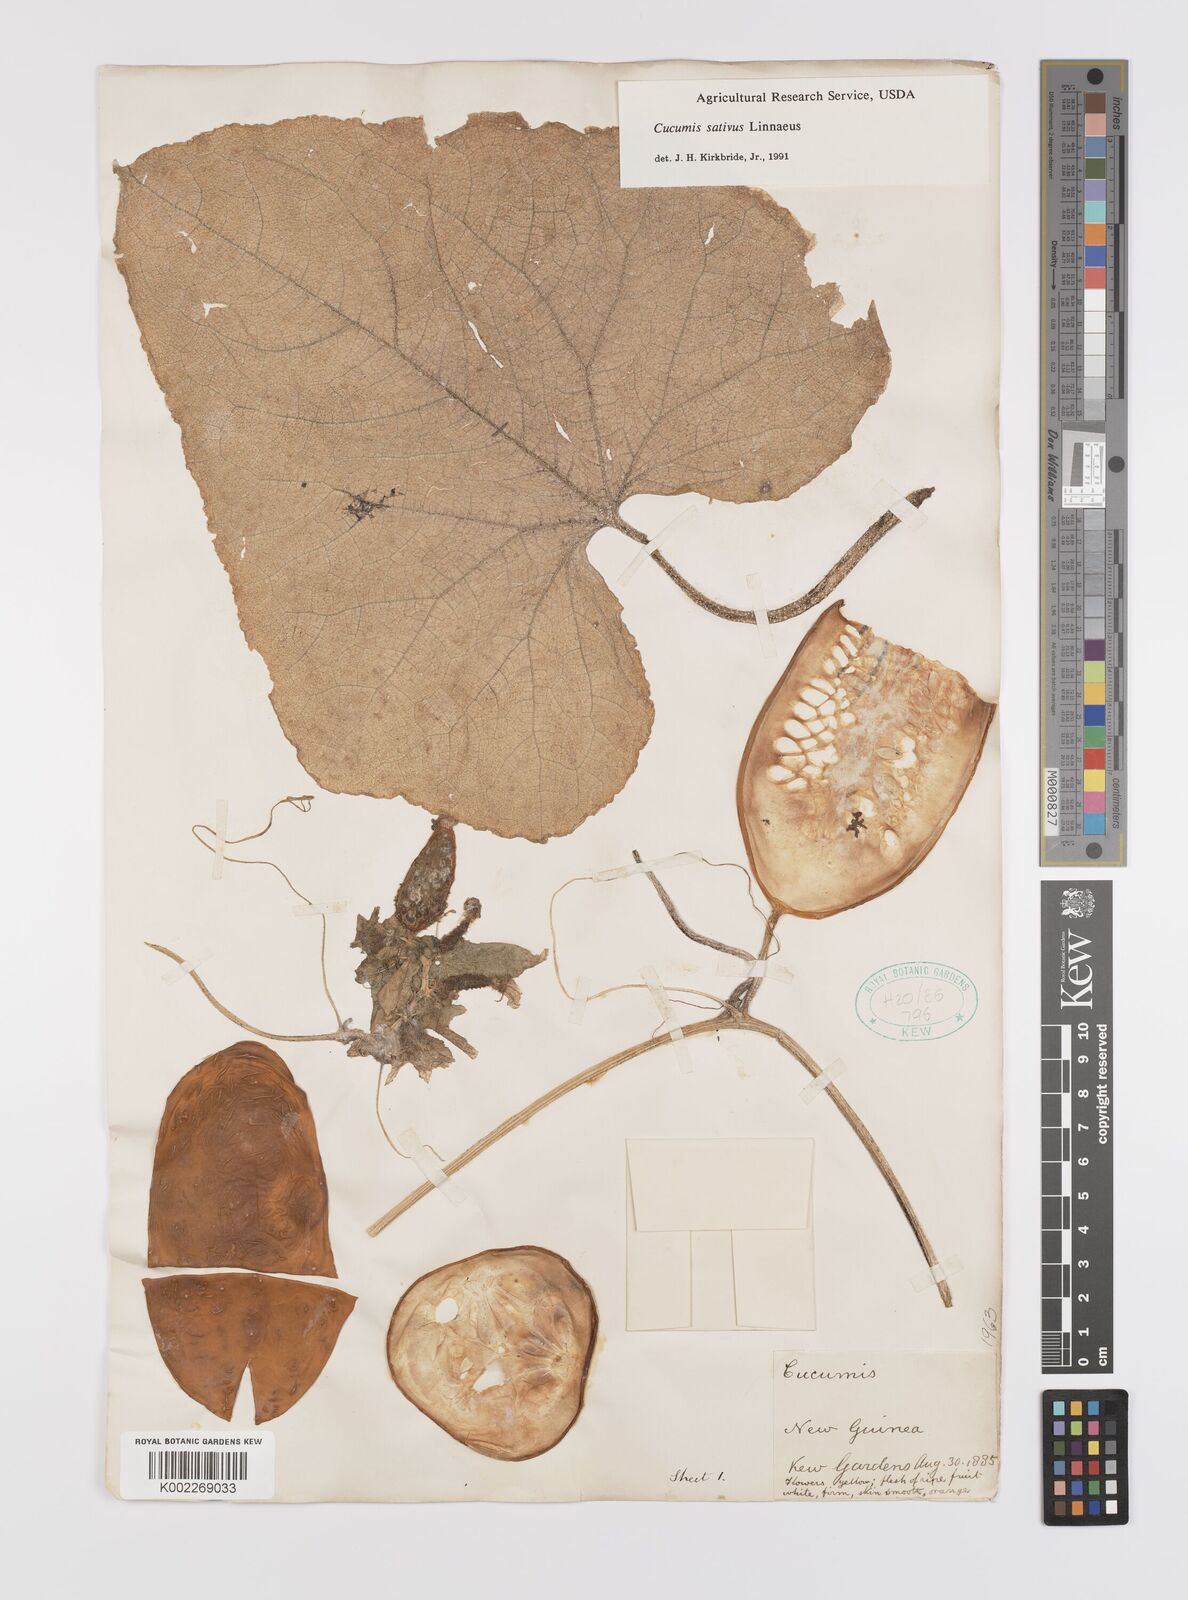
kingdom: Plantae
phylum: Tracheophyta
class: Magnoliopsida
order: Cucurbitales
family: Cucurbitaceae
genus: Cucumis
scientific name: Cucumis sativus
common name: Cucumber
